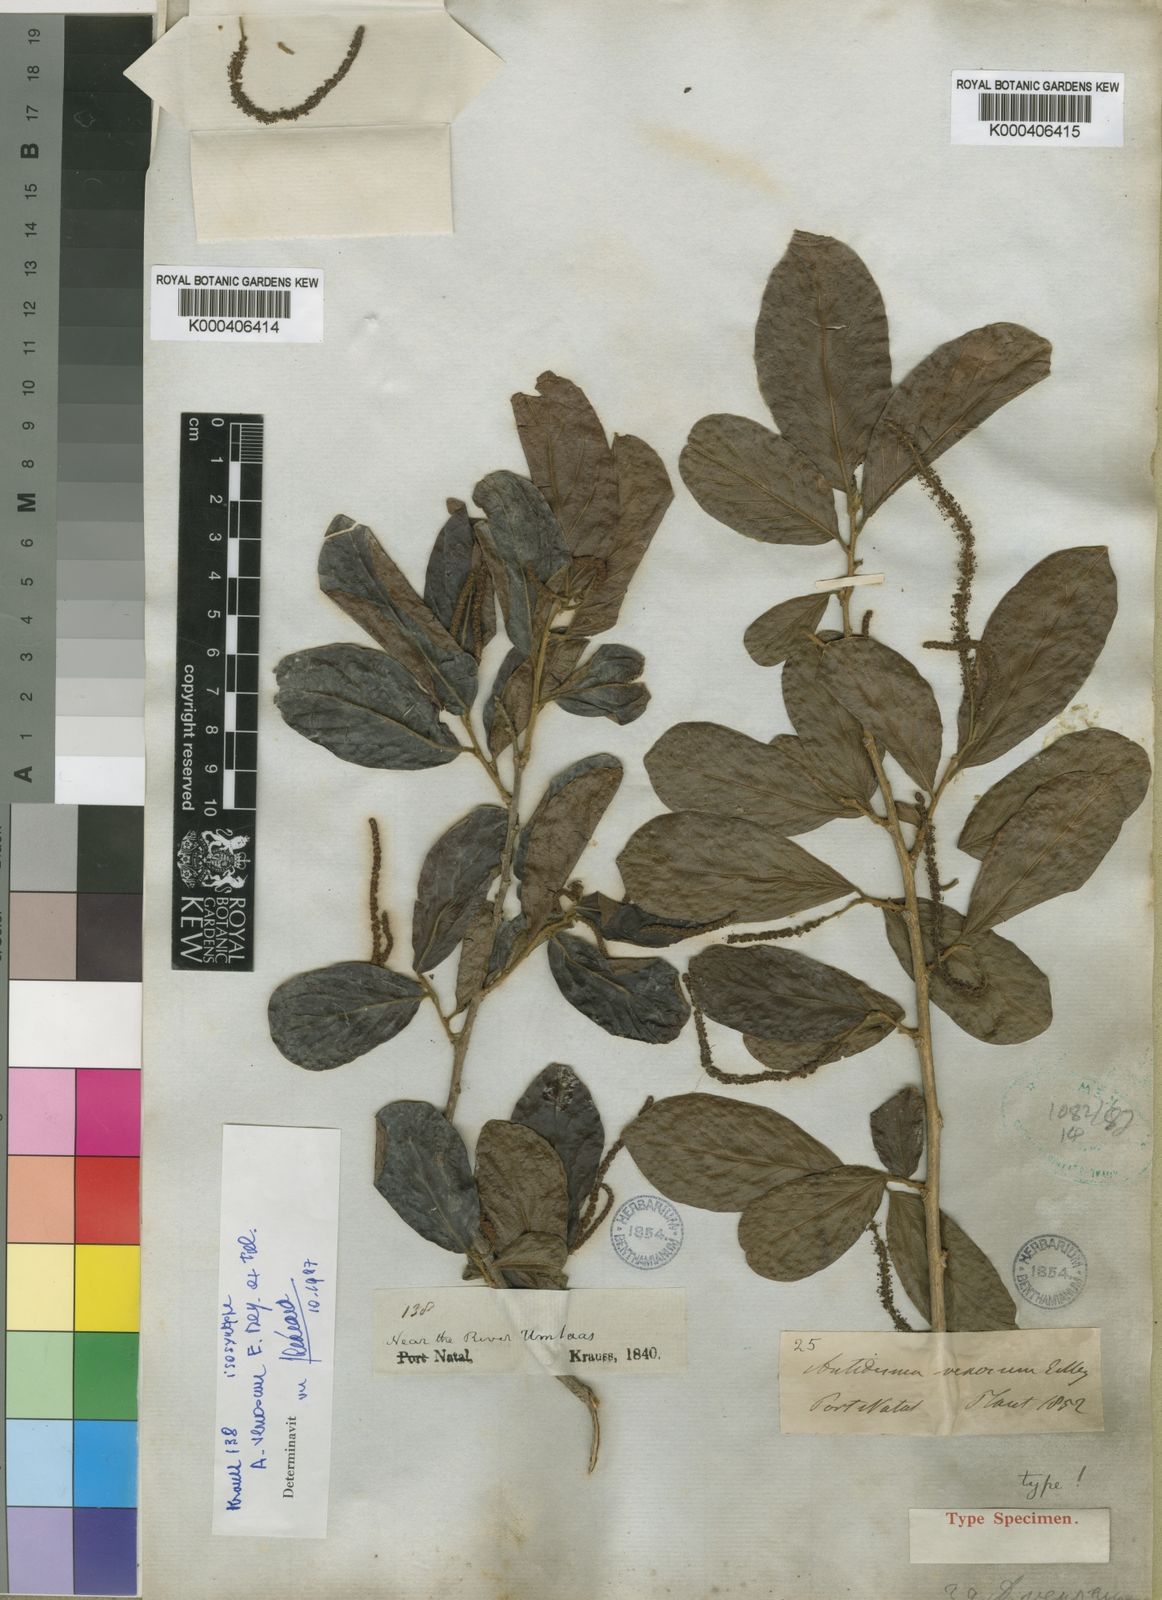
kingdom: Plantae
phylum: Tracheophyta
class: Magnoliopsida
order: Malpighiales
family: Phyllanthaceae
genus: Antidesma
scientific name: Antidesma venosum
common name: Tassel-berry
